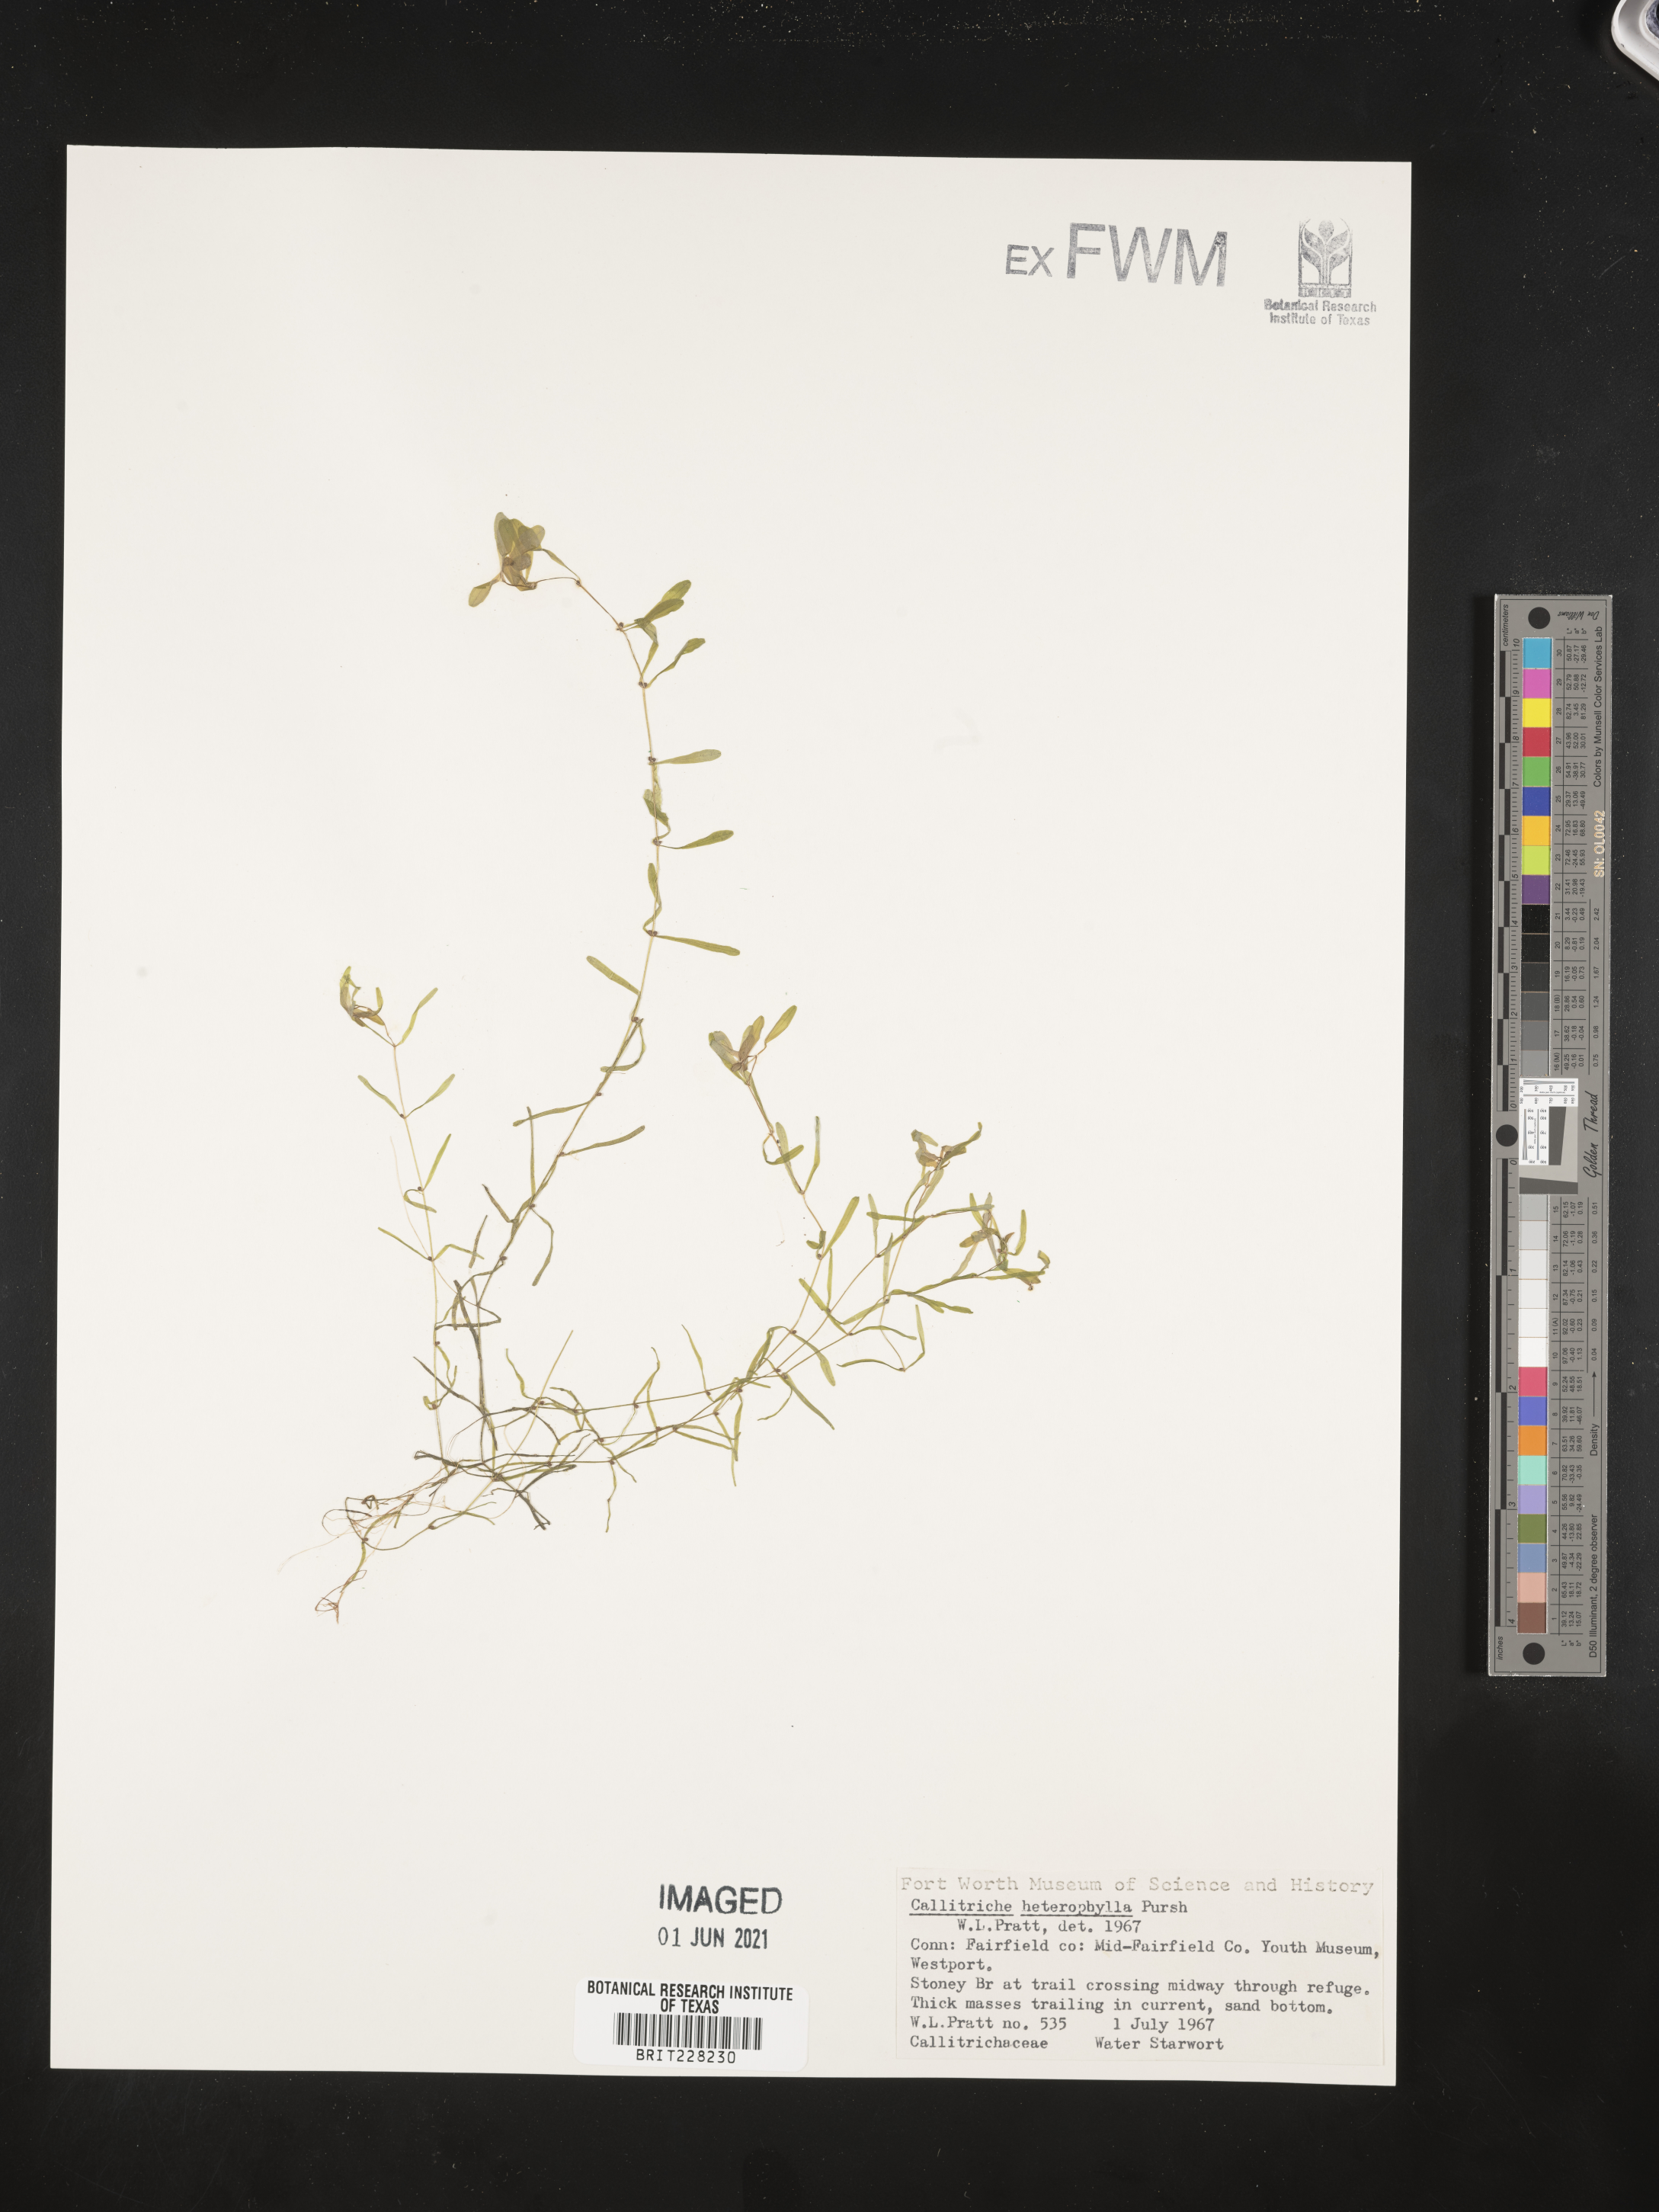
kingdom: Plantae
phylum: Tracheophyta
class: Magnoliopsida
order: Lamiales
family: Plantaginaceae
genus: Callitriche
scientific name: Callitriche heterophylla
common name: Two-headed water-starwort
